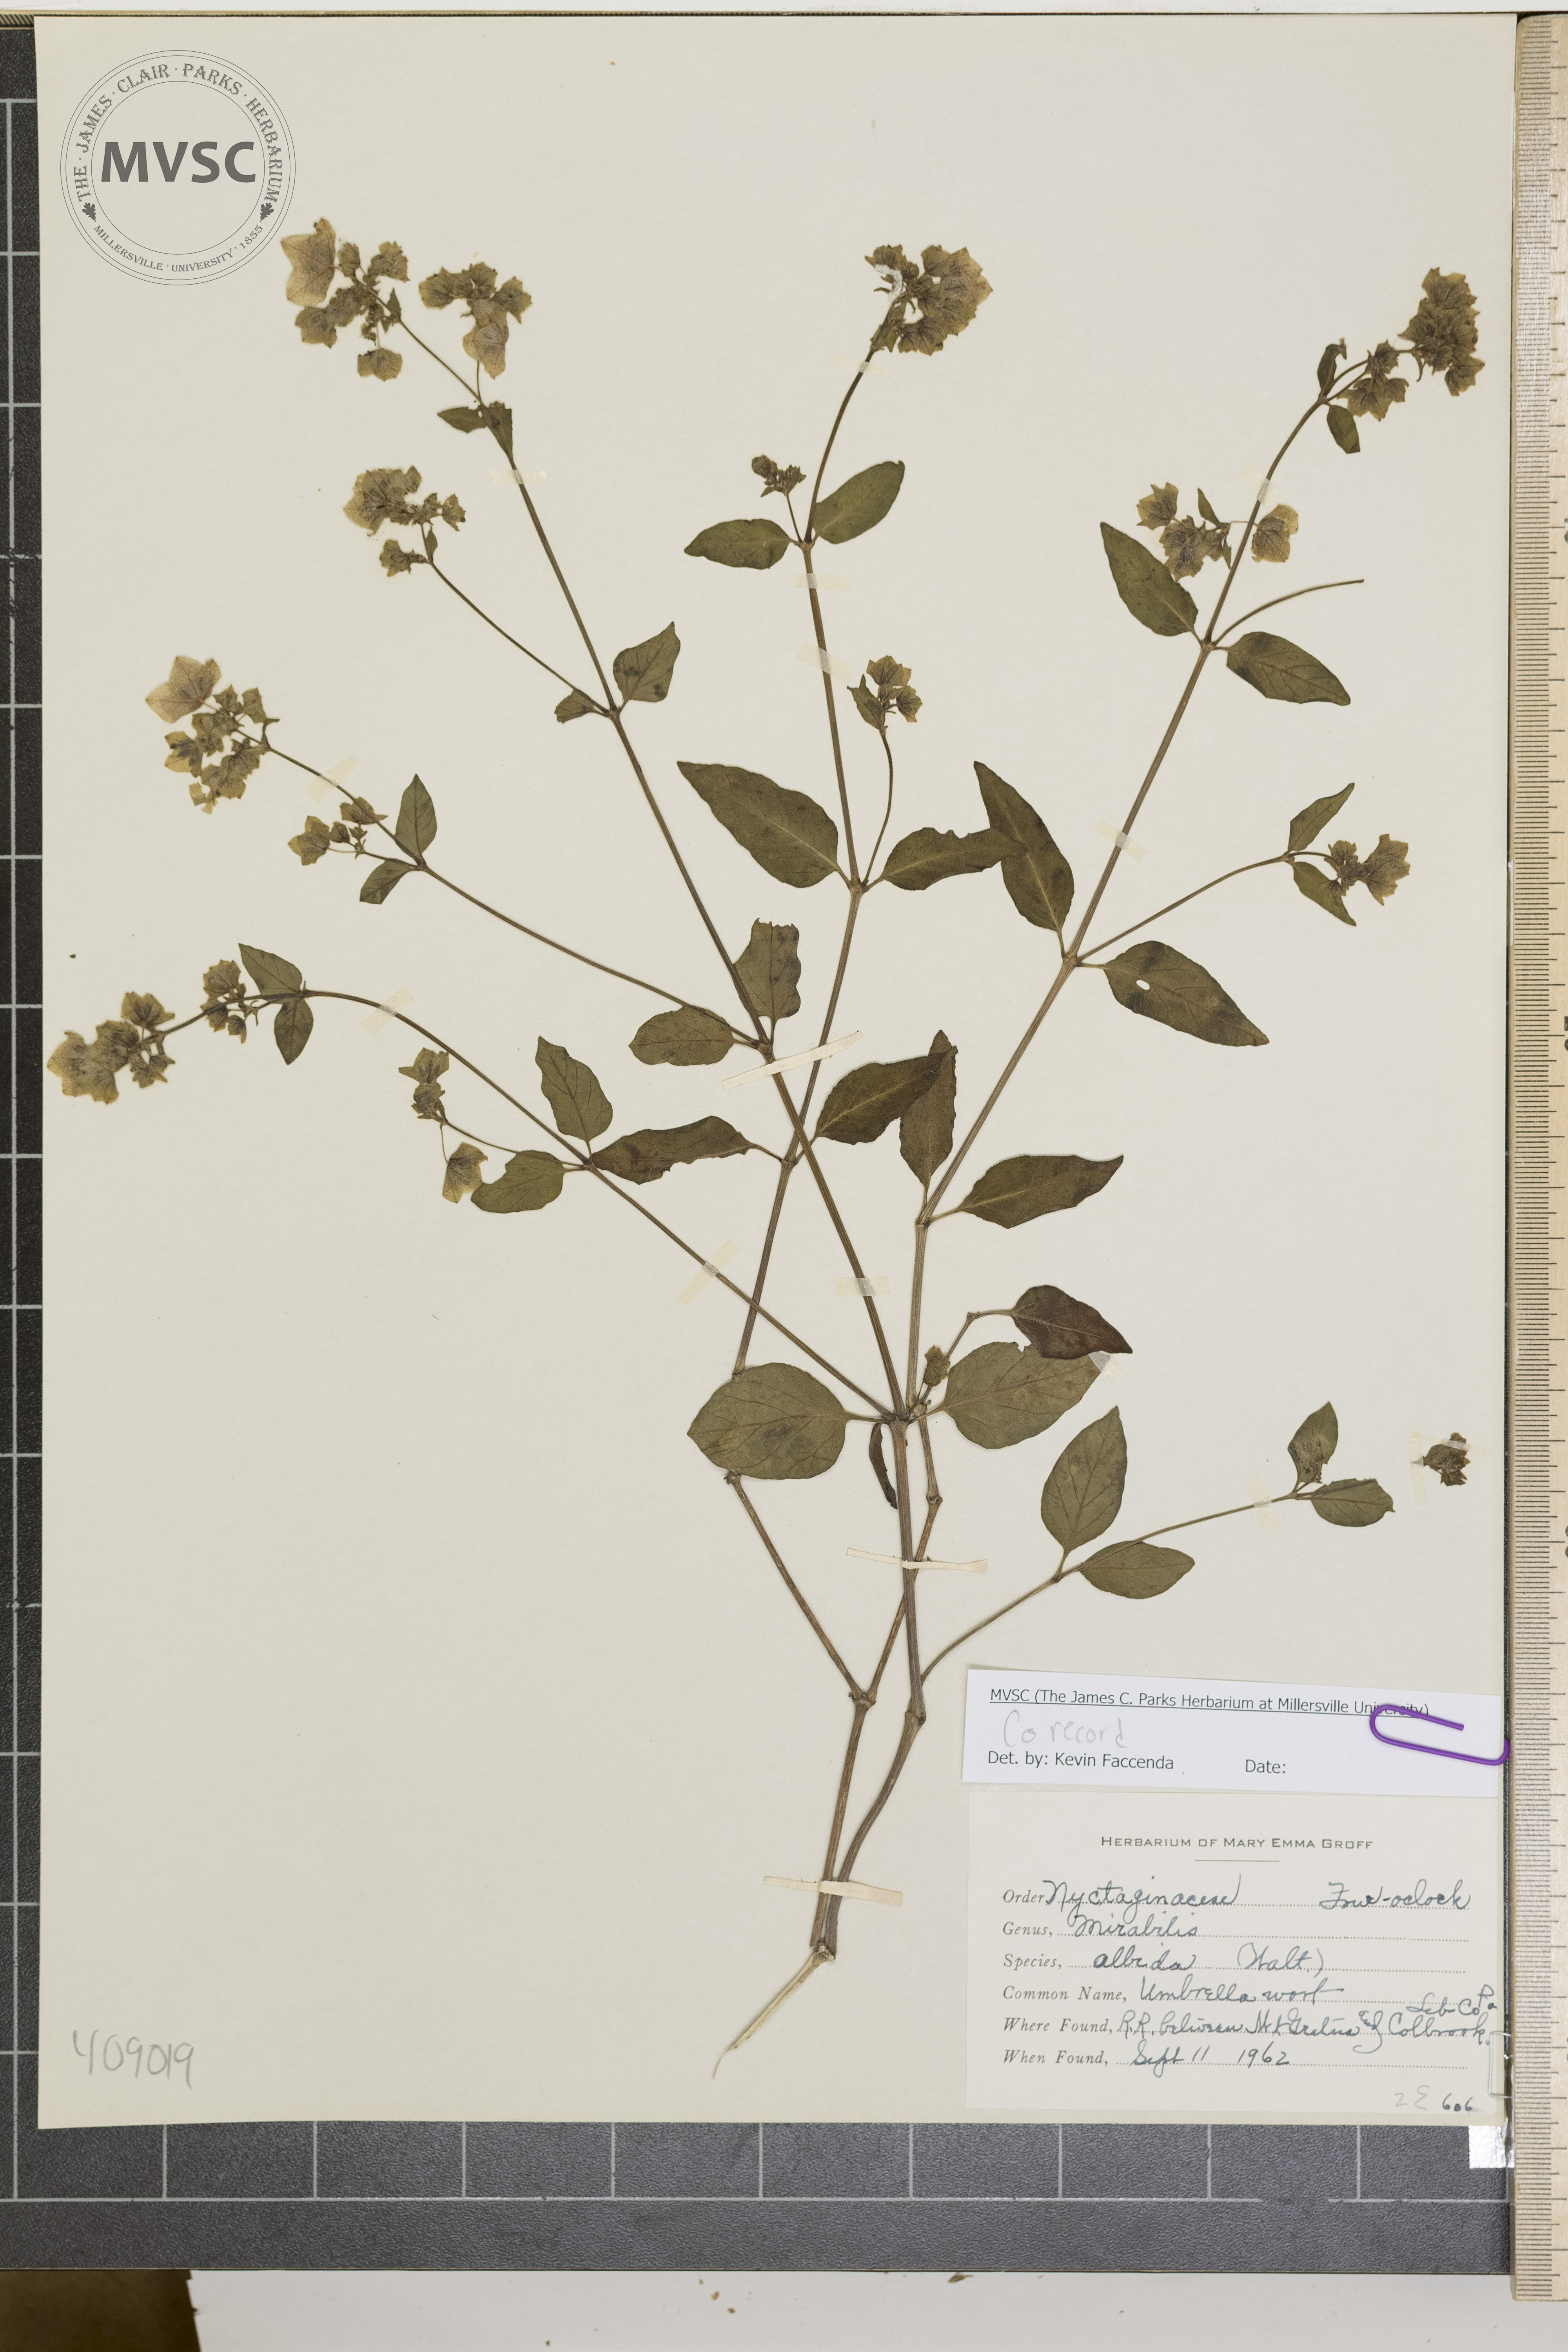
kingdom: Plantae
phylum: Tracheophyta
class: Magnoliopsida
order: Caryophyllales
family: Nyctaginaceae
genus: Mirabilis
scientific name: Mirabilis albida
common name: Umbrella wort
